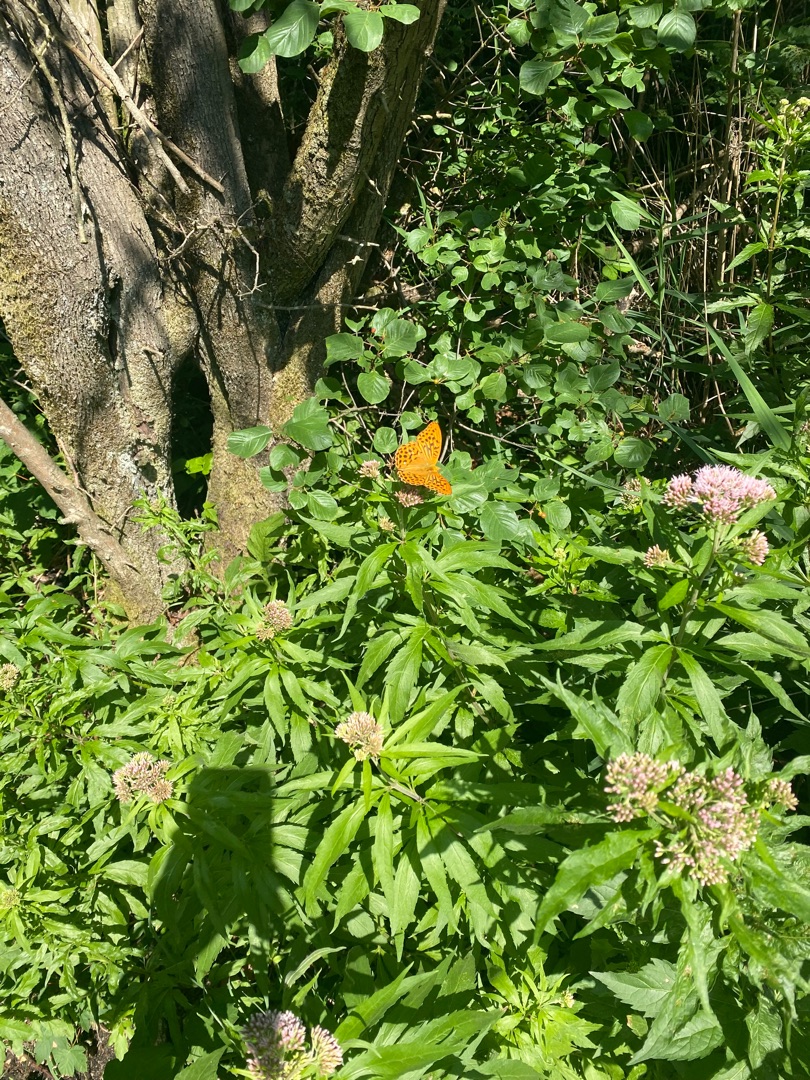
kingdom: Animalia
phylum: Arthropoda
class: Insecta
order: Lepidoptera
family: Nymphalidae
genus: Argynnis
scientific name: Argynnis paphia
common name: Kejserkåbe
